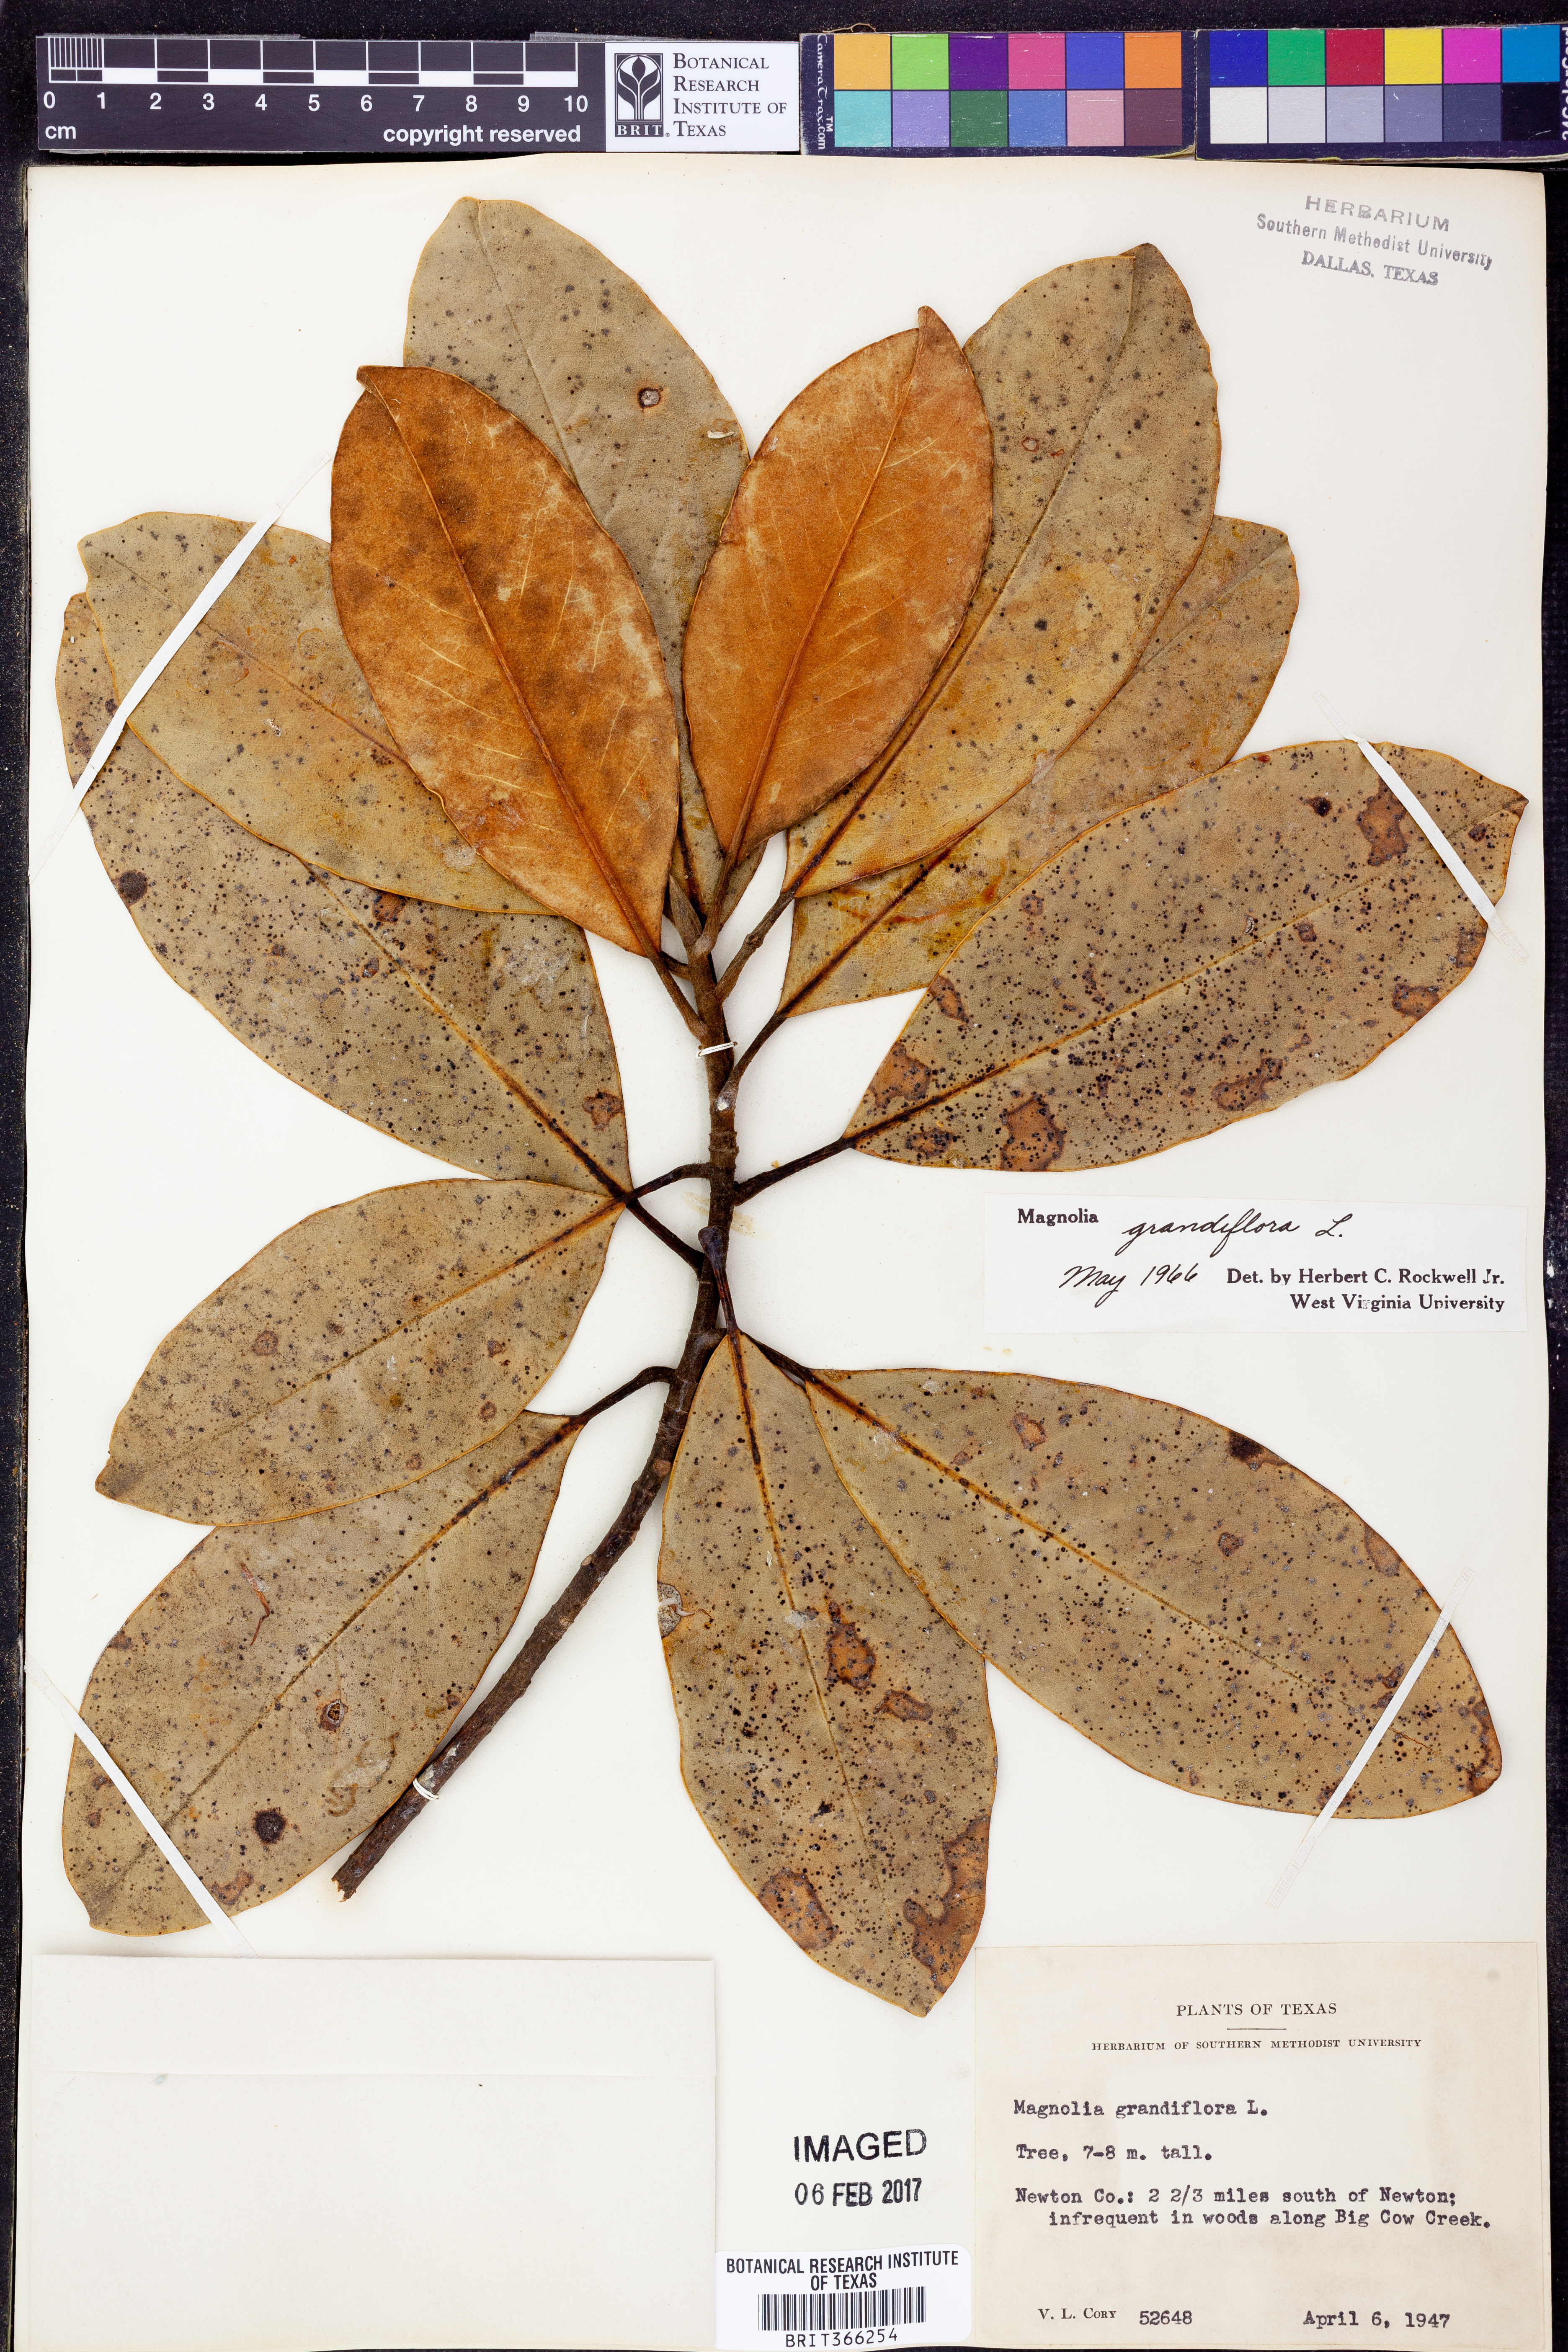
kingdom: Plantae
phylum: Tracheophyta
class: Magnoliopsida
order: Magnoliales
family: Magnoliaceae
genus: Magnolia
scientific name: Magnolia grandiflora
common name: Southern magnolia
